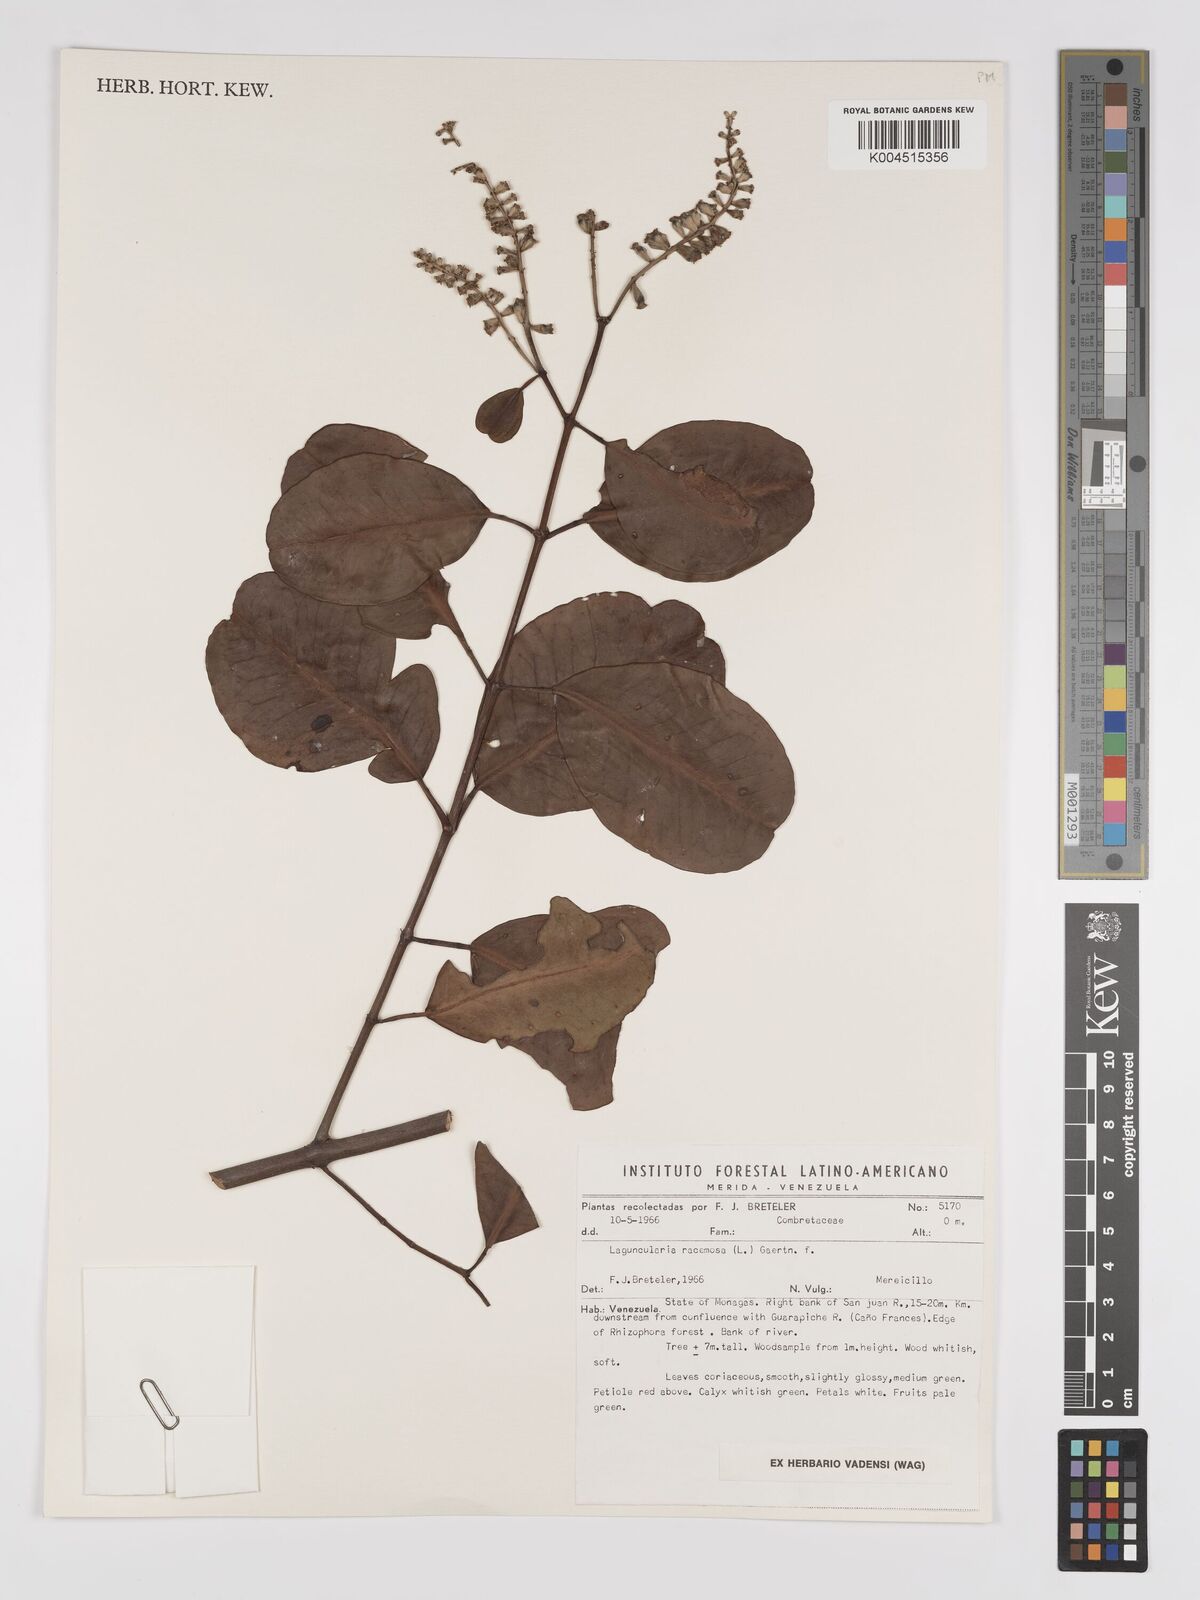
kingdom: Plantae
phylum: Tracheophyta
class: Magnoliopsida
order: Myrtales
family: Combretaceae
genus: Laguncularia
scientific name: Laguncularia racemosa
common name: White mangrove
